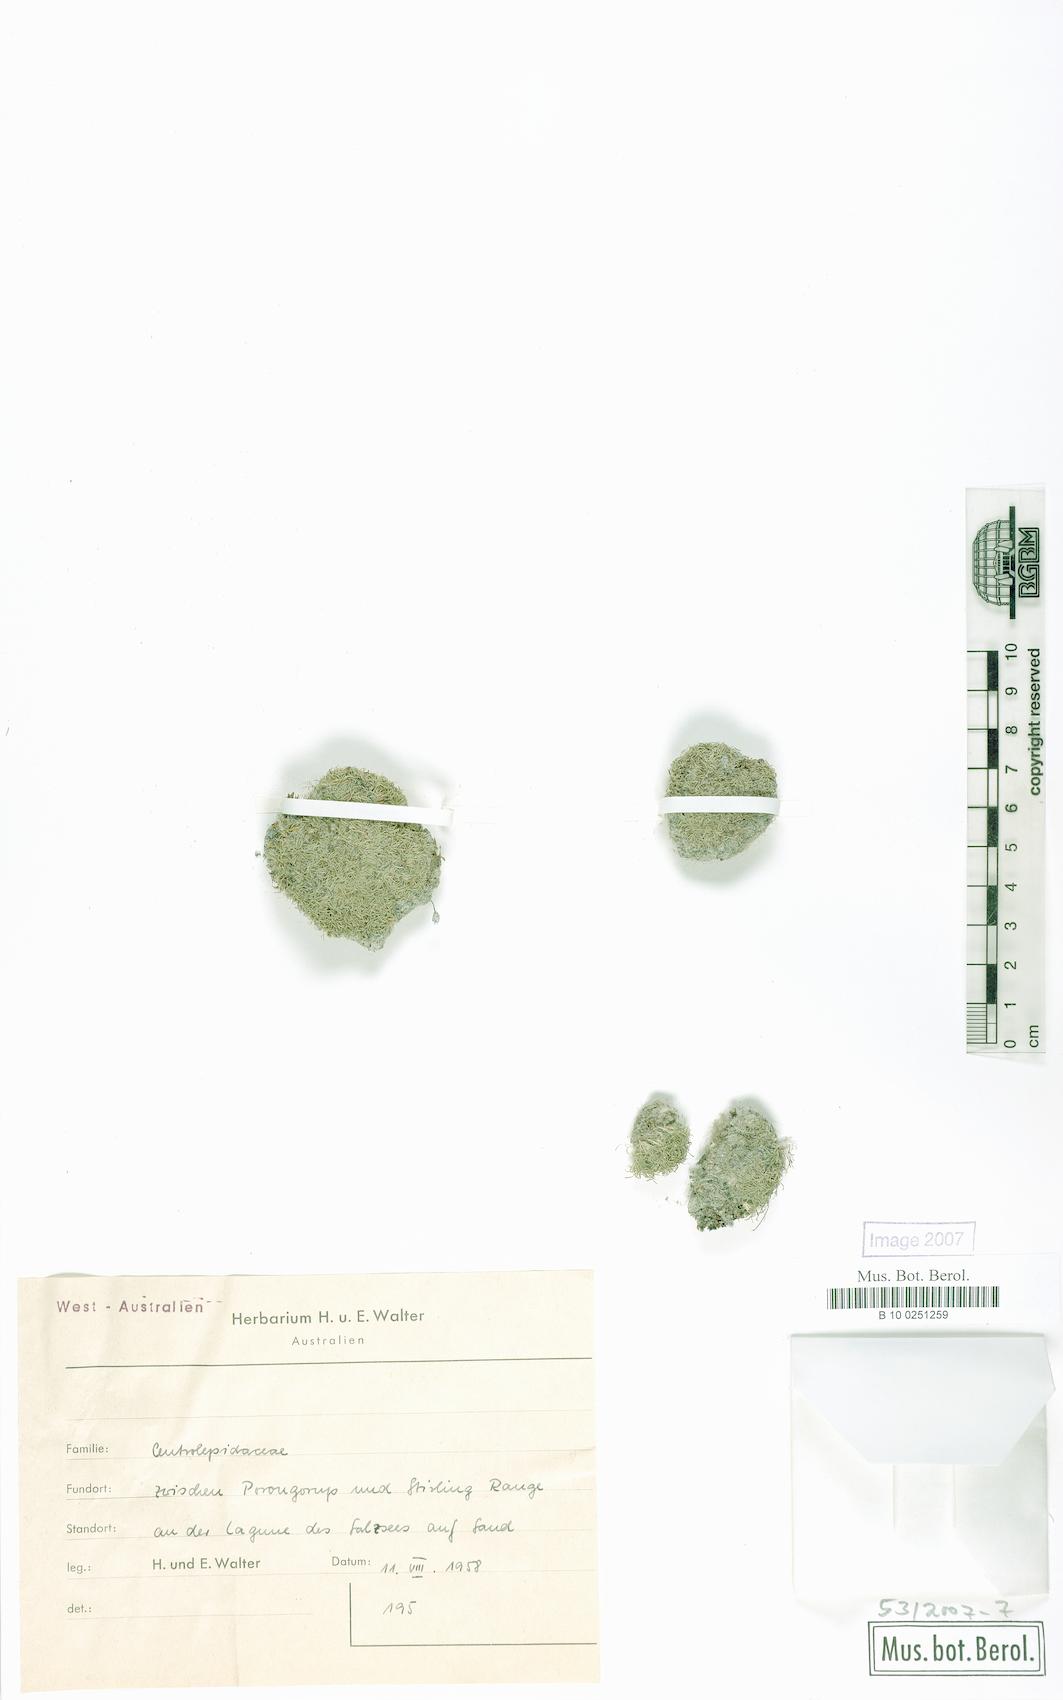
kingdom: Plantae
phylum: Tracheophyta
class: Liliopsida
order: Poales
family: Centrolepidaceae
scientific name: Centrolepidaceae
